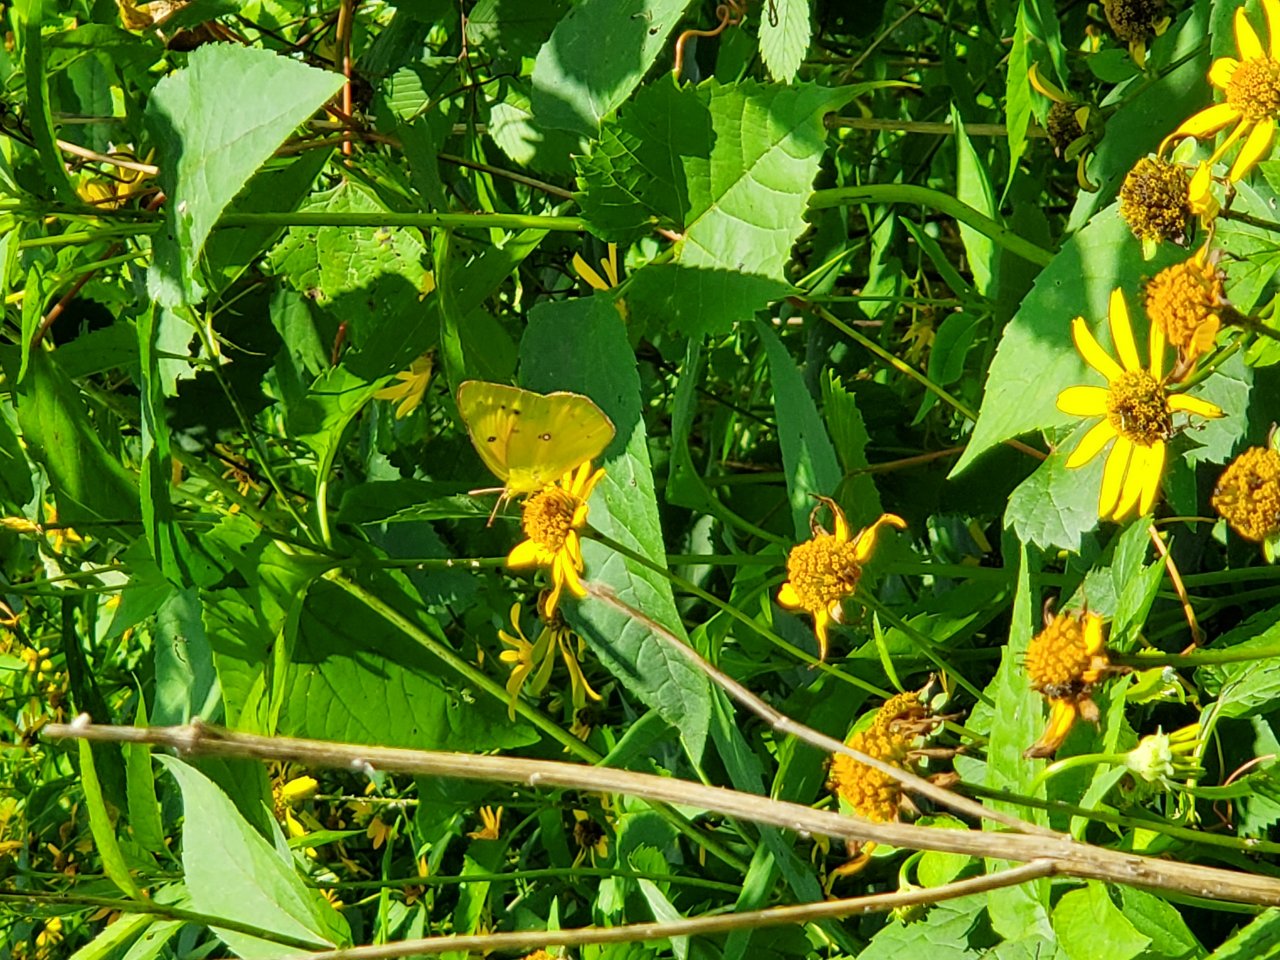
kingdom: Animalia
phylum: Arthropoda
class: Insecta
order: Lepidoptera
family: Pieridae
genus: Colias
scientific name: Colias eurytheme
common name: Orange Sulphur
